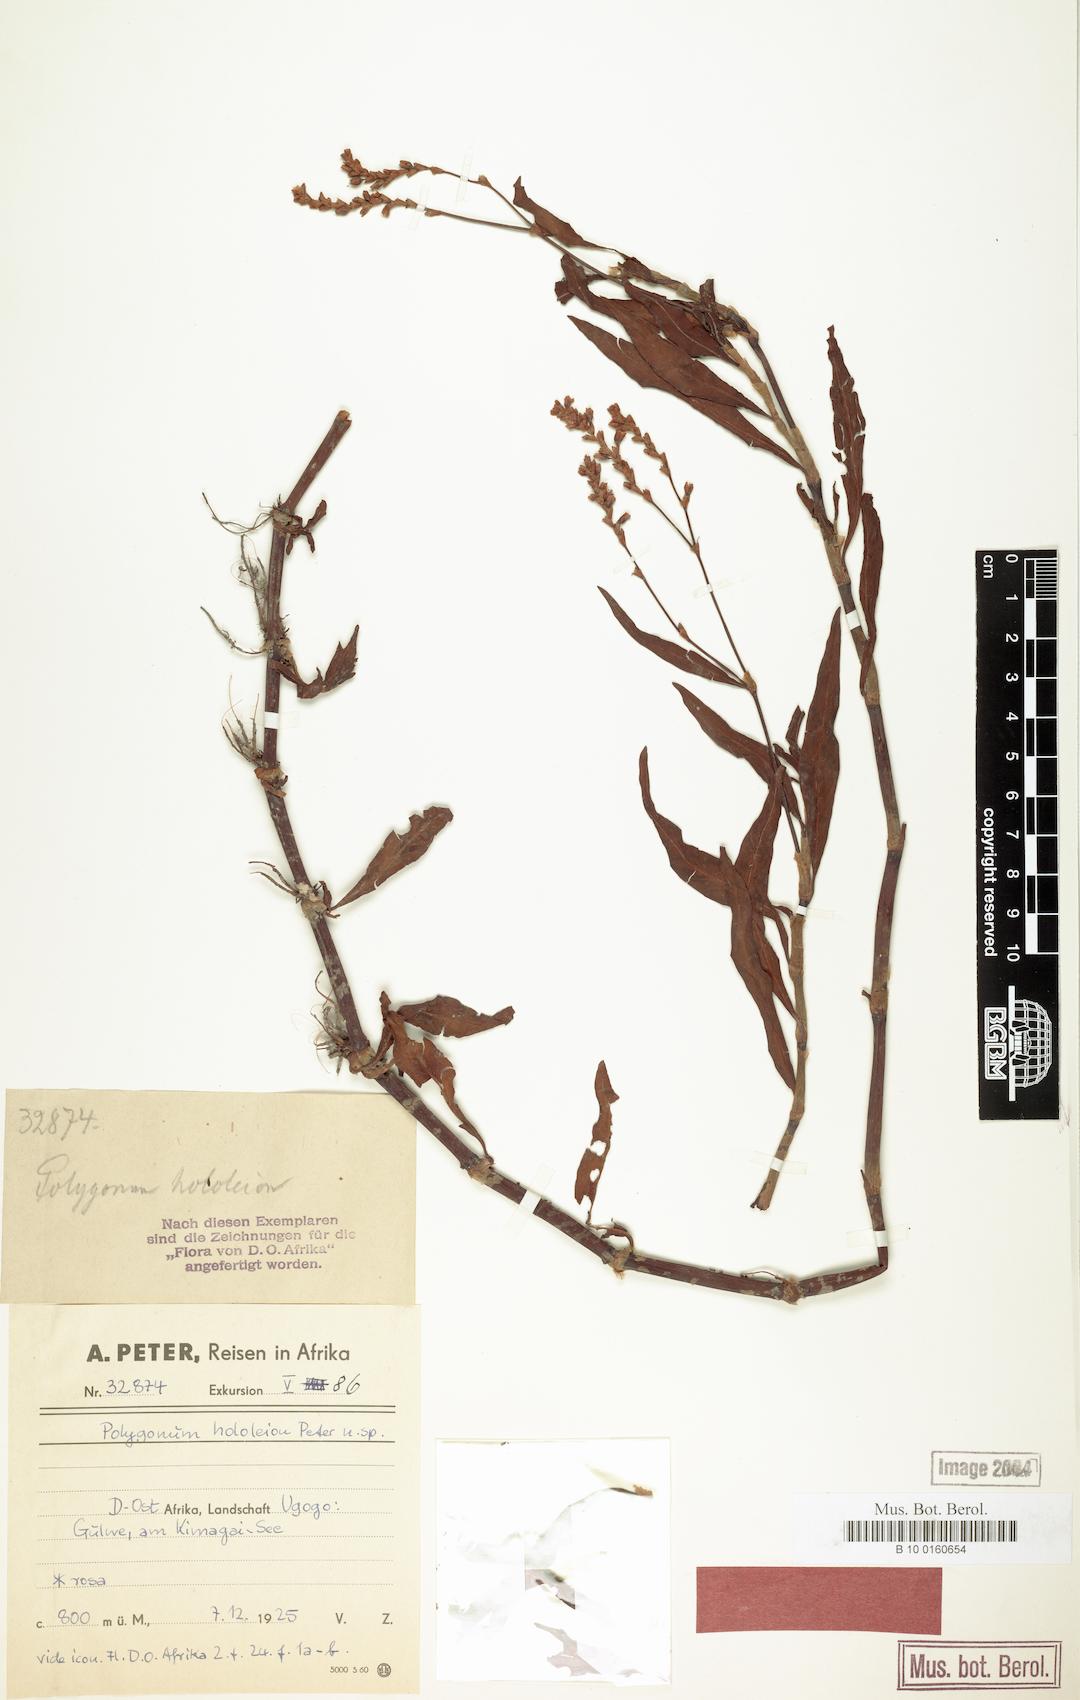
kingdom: Plantae
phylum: Tracheophyta
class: Magnoliopsida
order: Caryophyllales
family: Polygonaceae
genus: Persicaria
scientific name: Persicaria setosula
